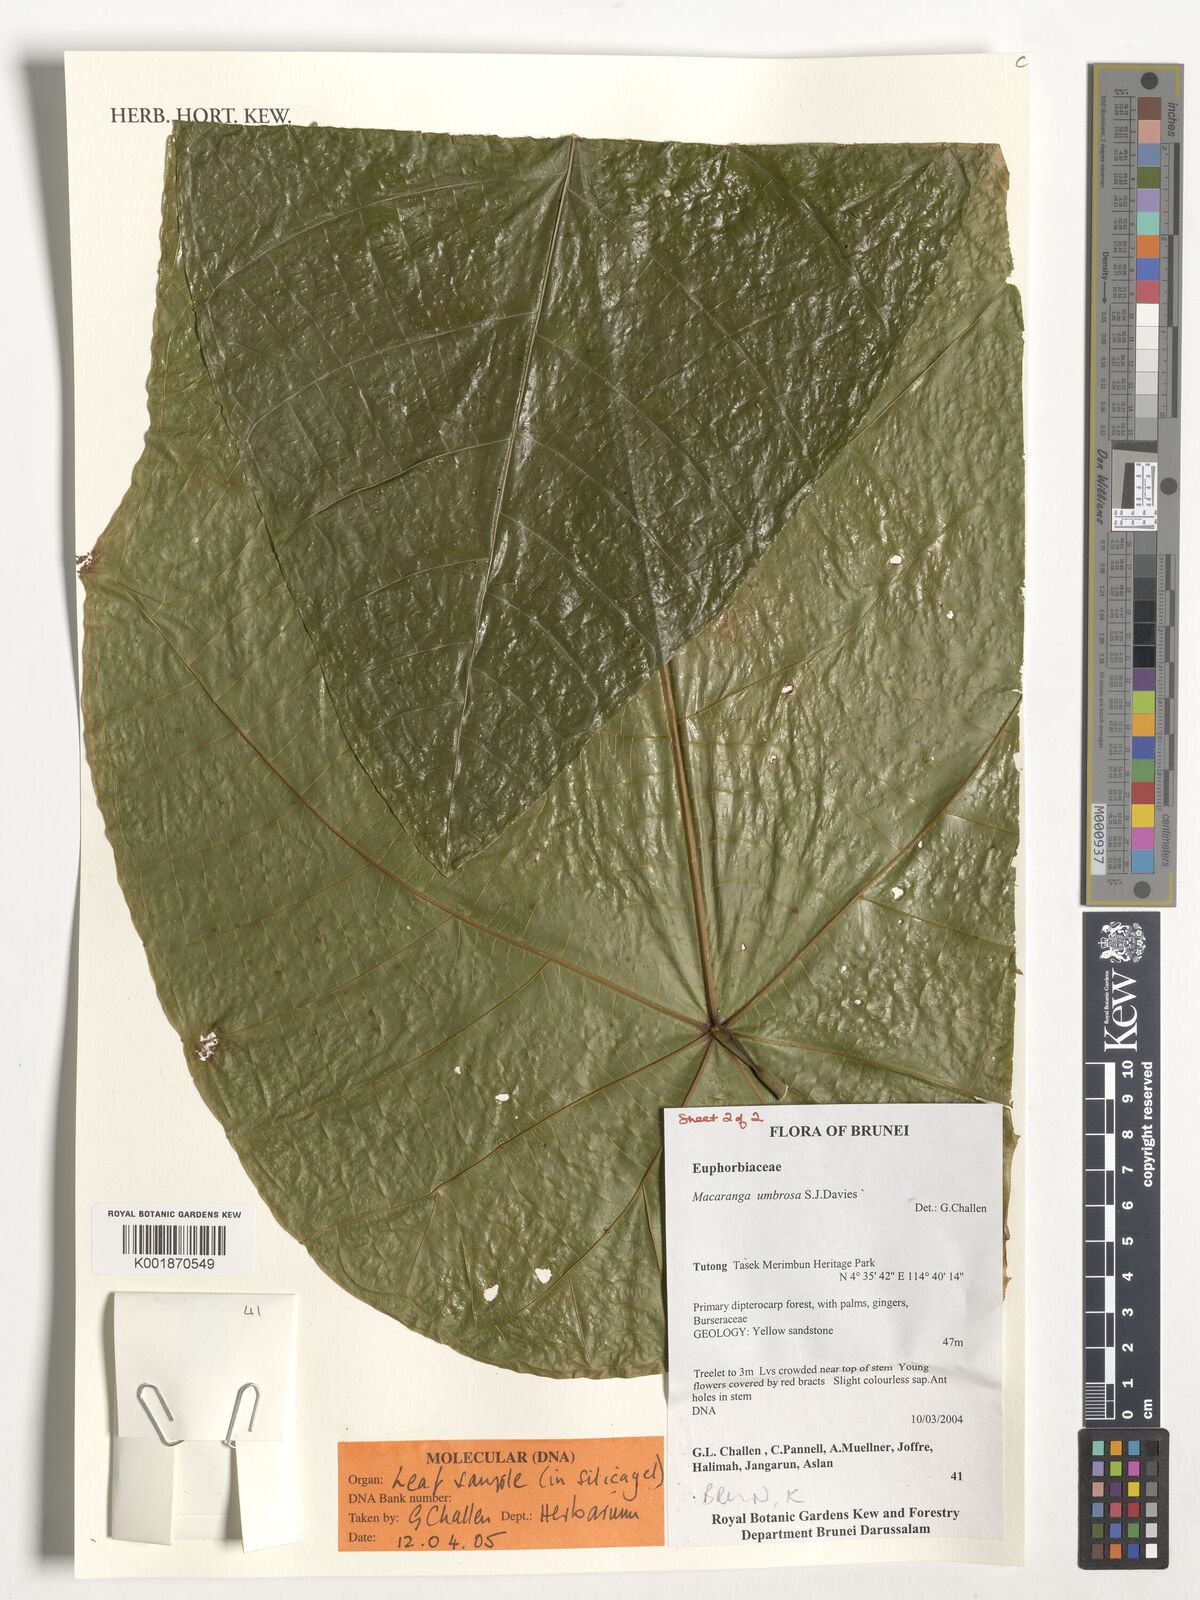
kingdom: Plantae
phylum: Tracheophyta
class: Magnoliopsida
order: Malpighiales
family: Euphorbiaceae
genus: Macaranga
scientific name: Macaranga umbrosa
